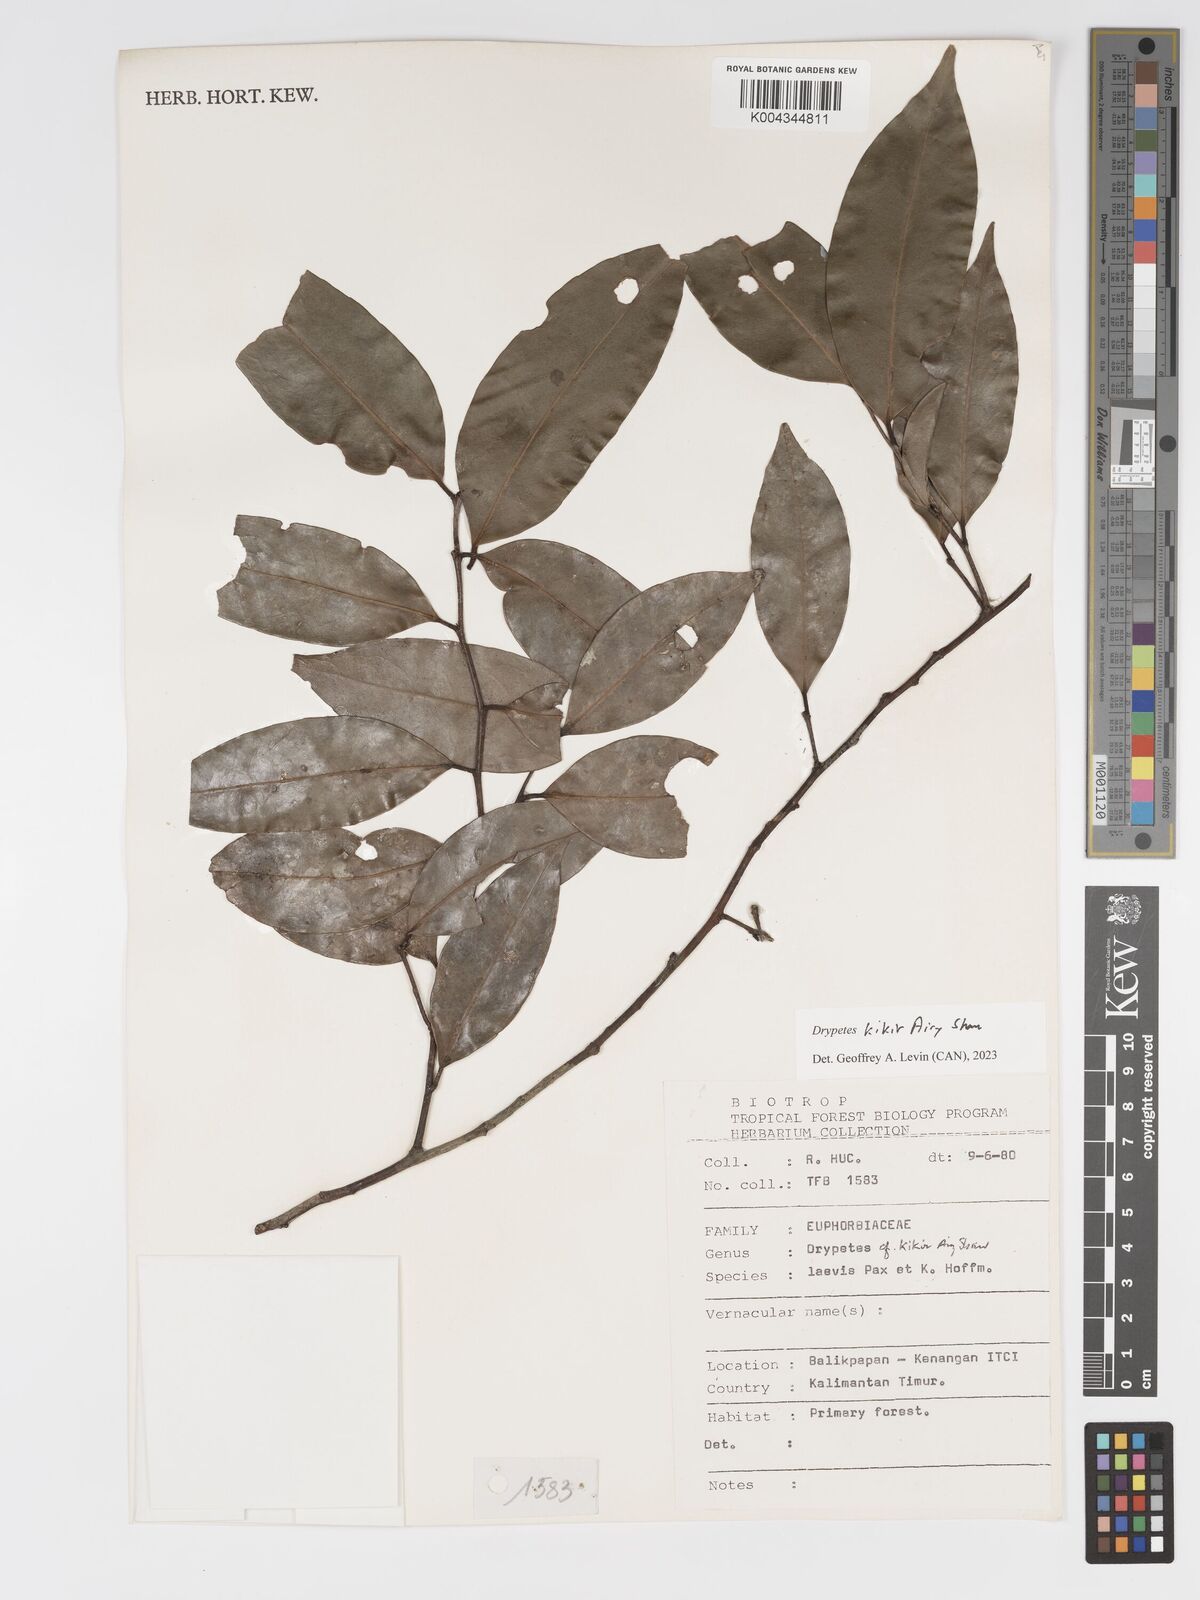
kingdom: Plantae
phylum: Tracheophyta
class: Magnoliopsida
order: Malpighiales
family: Putranjivaceae
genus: Drypetes
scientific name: Drypetes kikir
